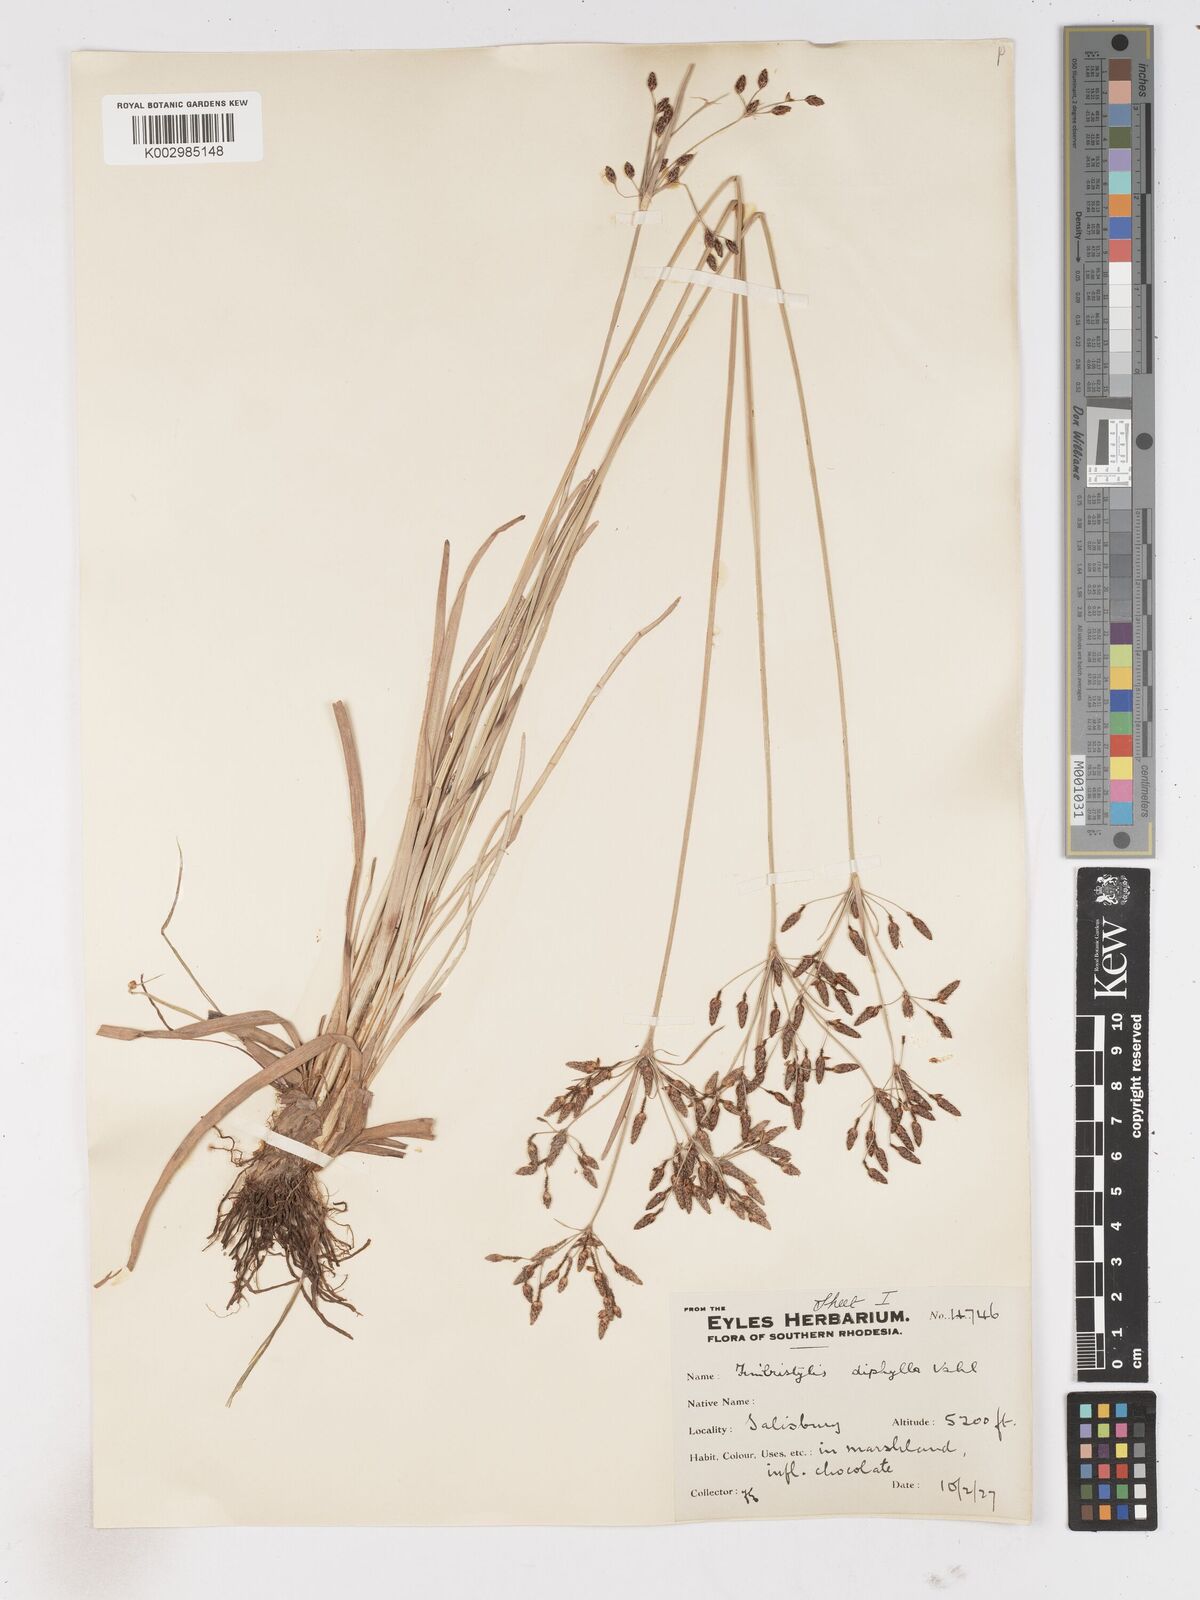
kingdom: Plantae
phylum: Tracheophyta
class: Liliopsida
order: Poales
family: Cyperaceae
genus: Fimbristylis
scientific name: Fimbristylis dichotoma
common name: Forked fimbry
